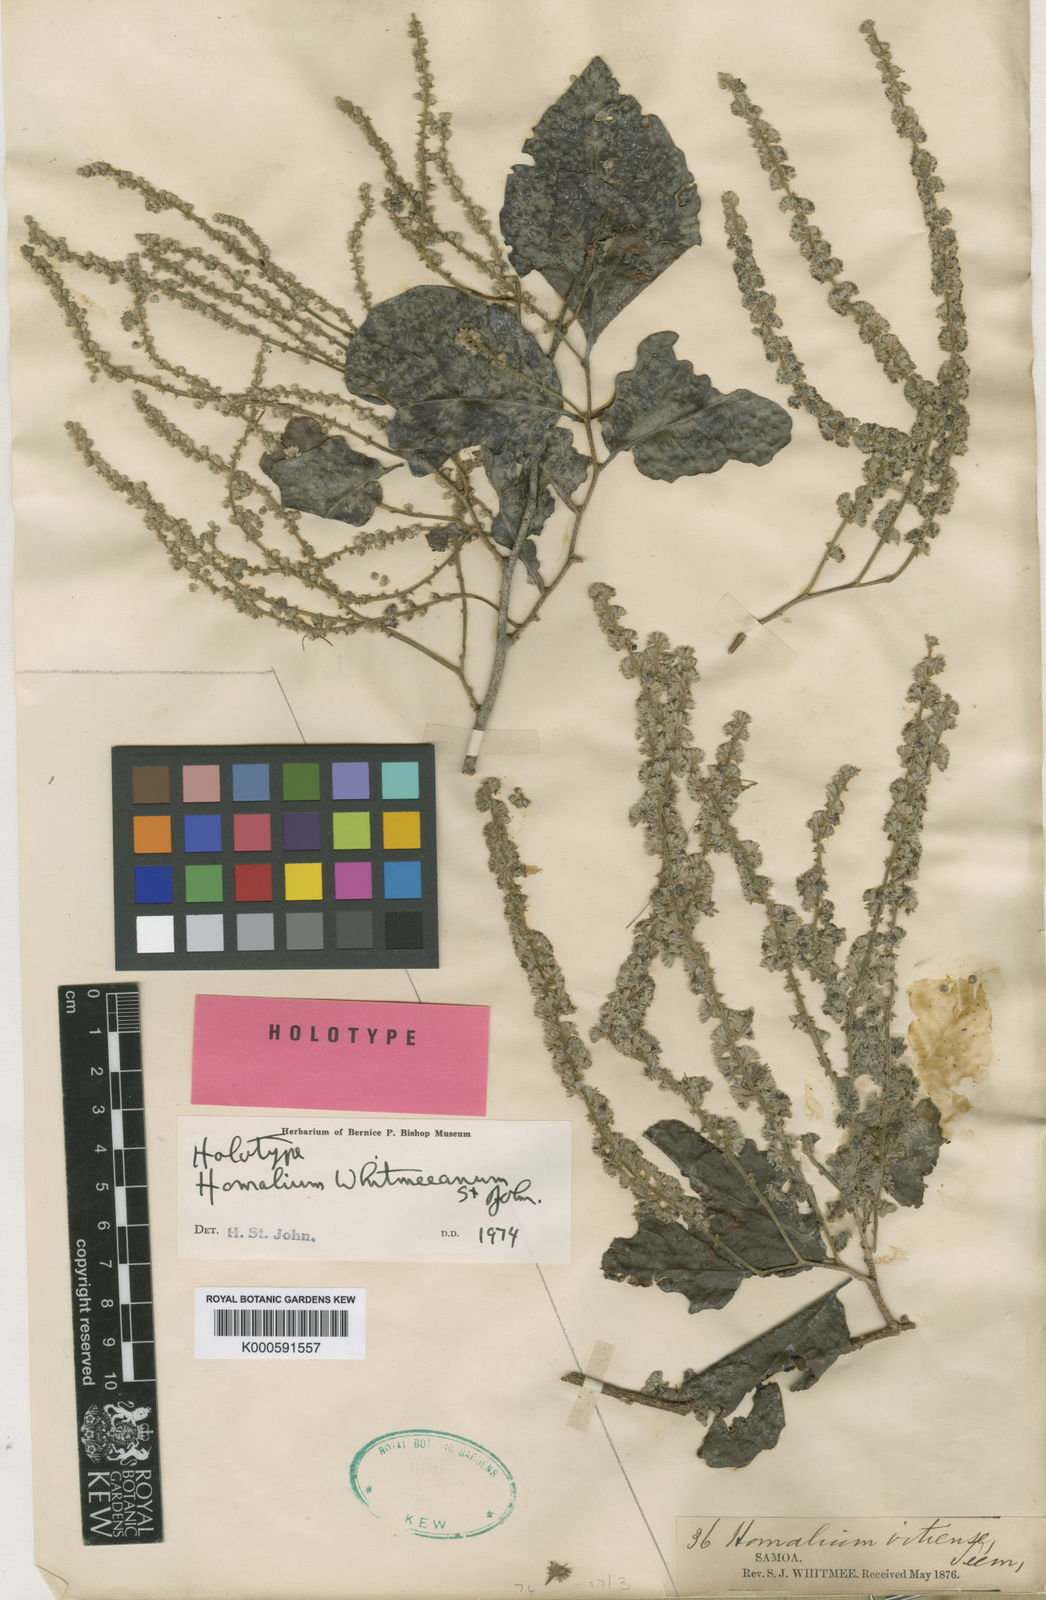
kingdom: Plantae
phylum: Tracheophyta
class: Magnoliopsida
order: Malpighiales
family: Salicaceae
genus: Homalium
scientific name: Homalium whitmeeanum
